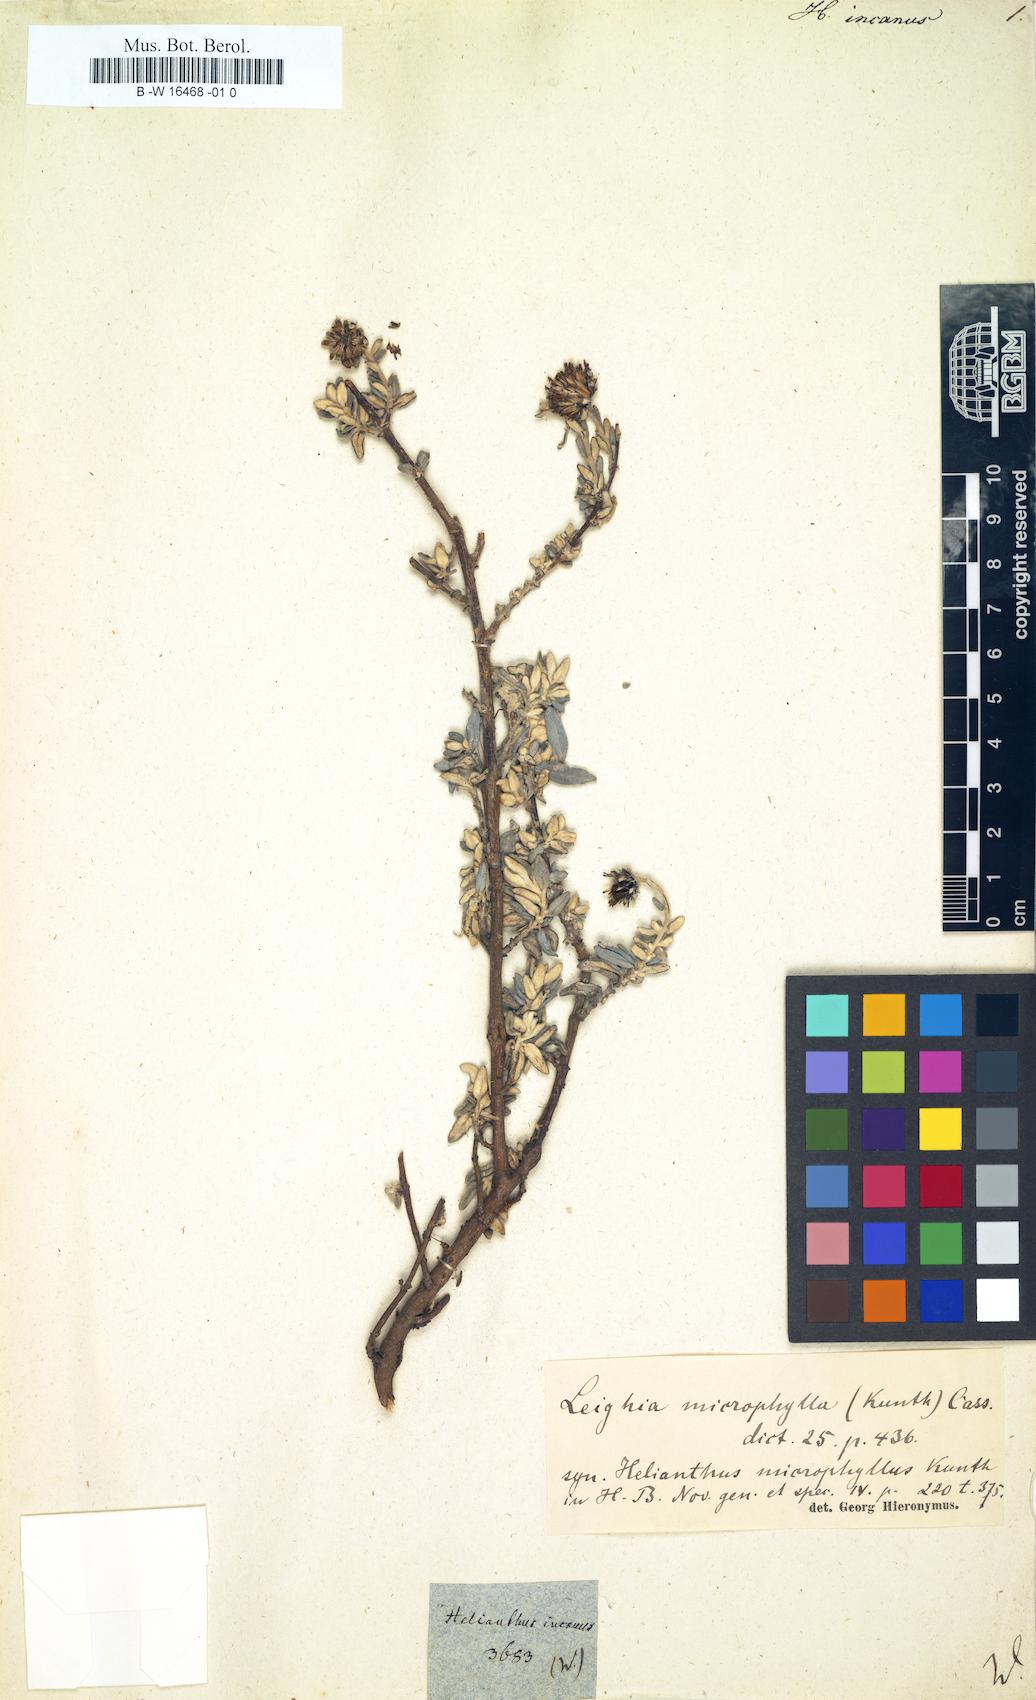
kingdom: Plantae
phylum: Tracheophyta
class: Magnoliopsida
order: Asterales
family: Asteraceae
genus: Aldama
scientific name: Aldama incana
